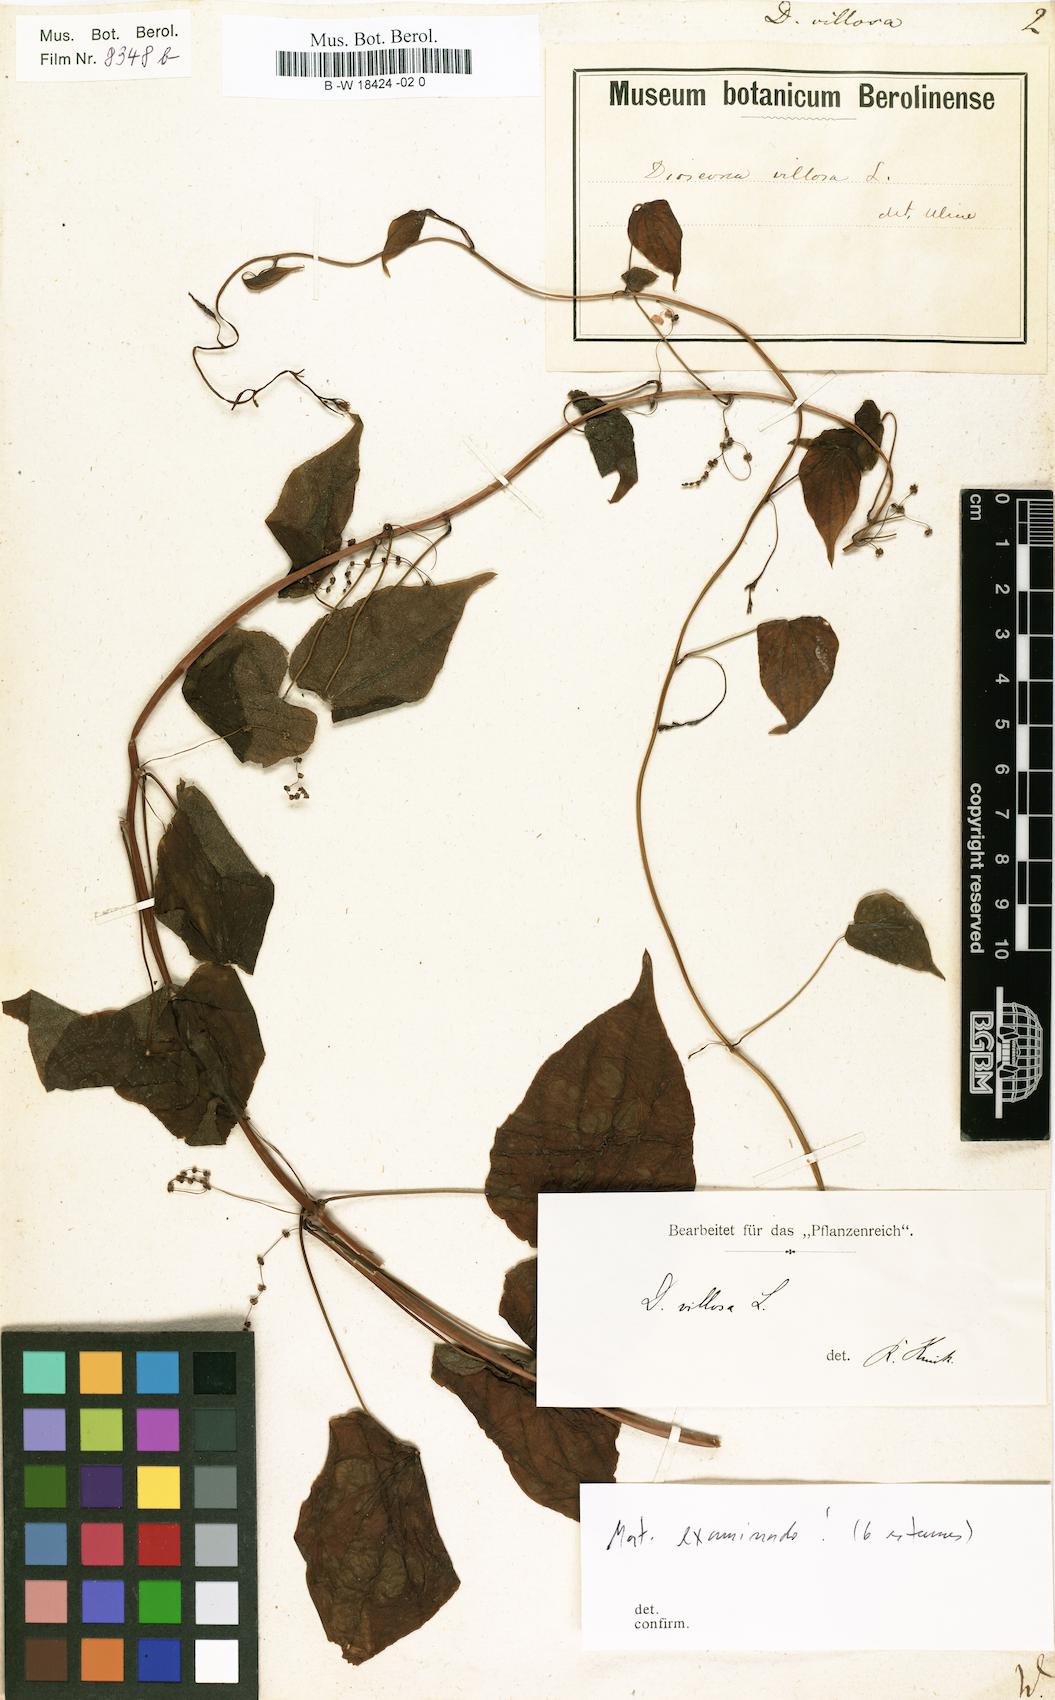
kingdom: Plantae
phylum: Tracheophyta
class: Liliopsida
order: Dioscoreales
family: Dioscoreaceae
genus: Dioscorea
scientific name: Dioscorea villosa
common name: Wild yam
